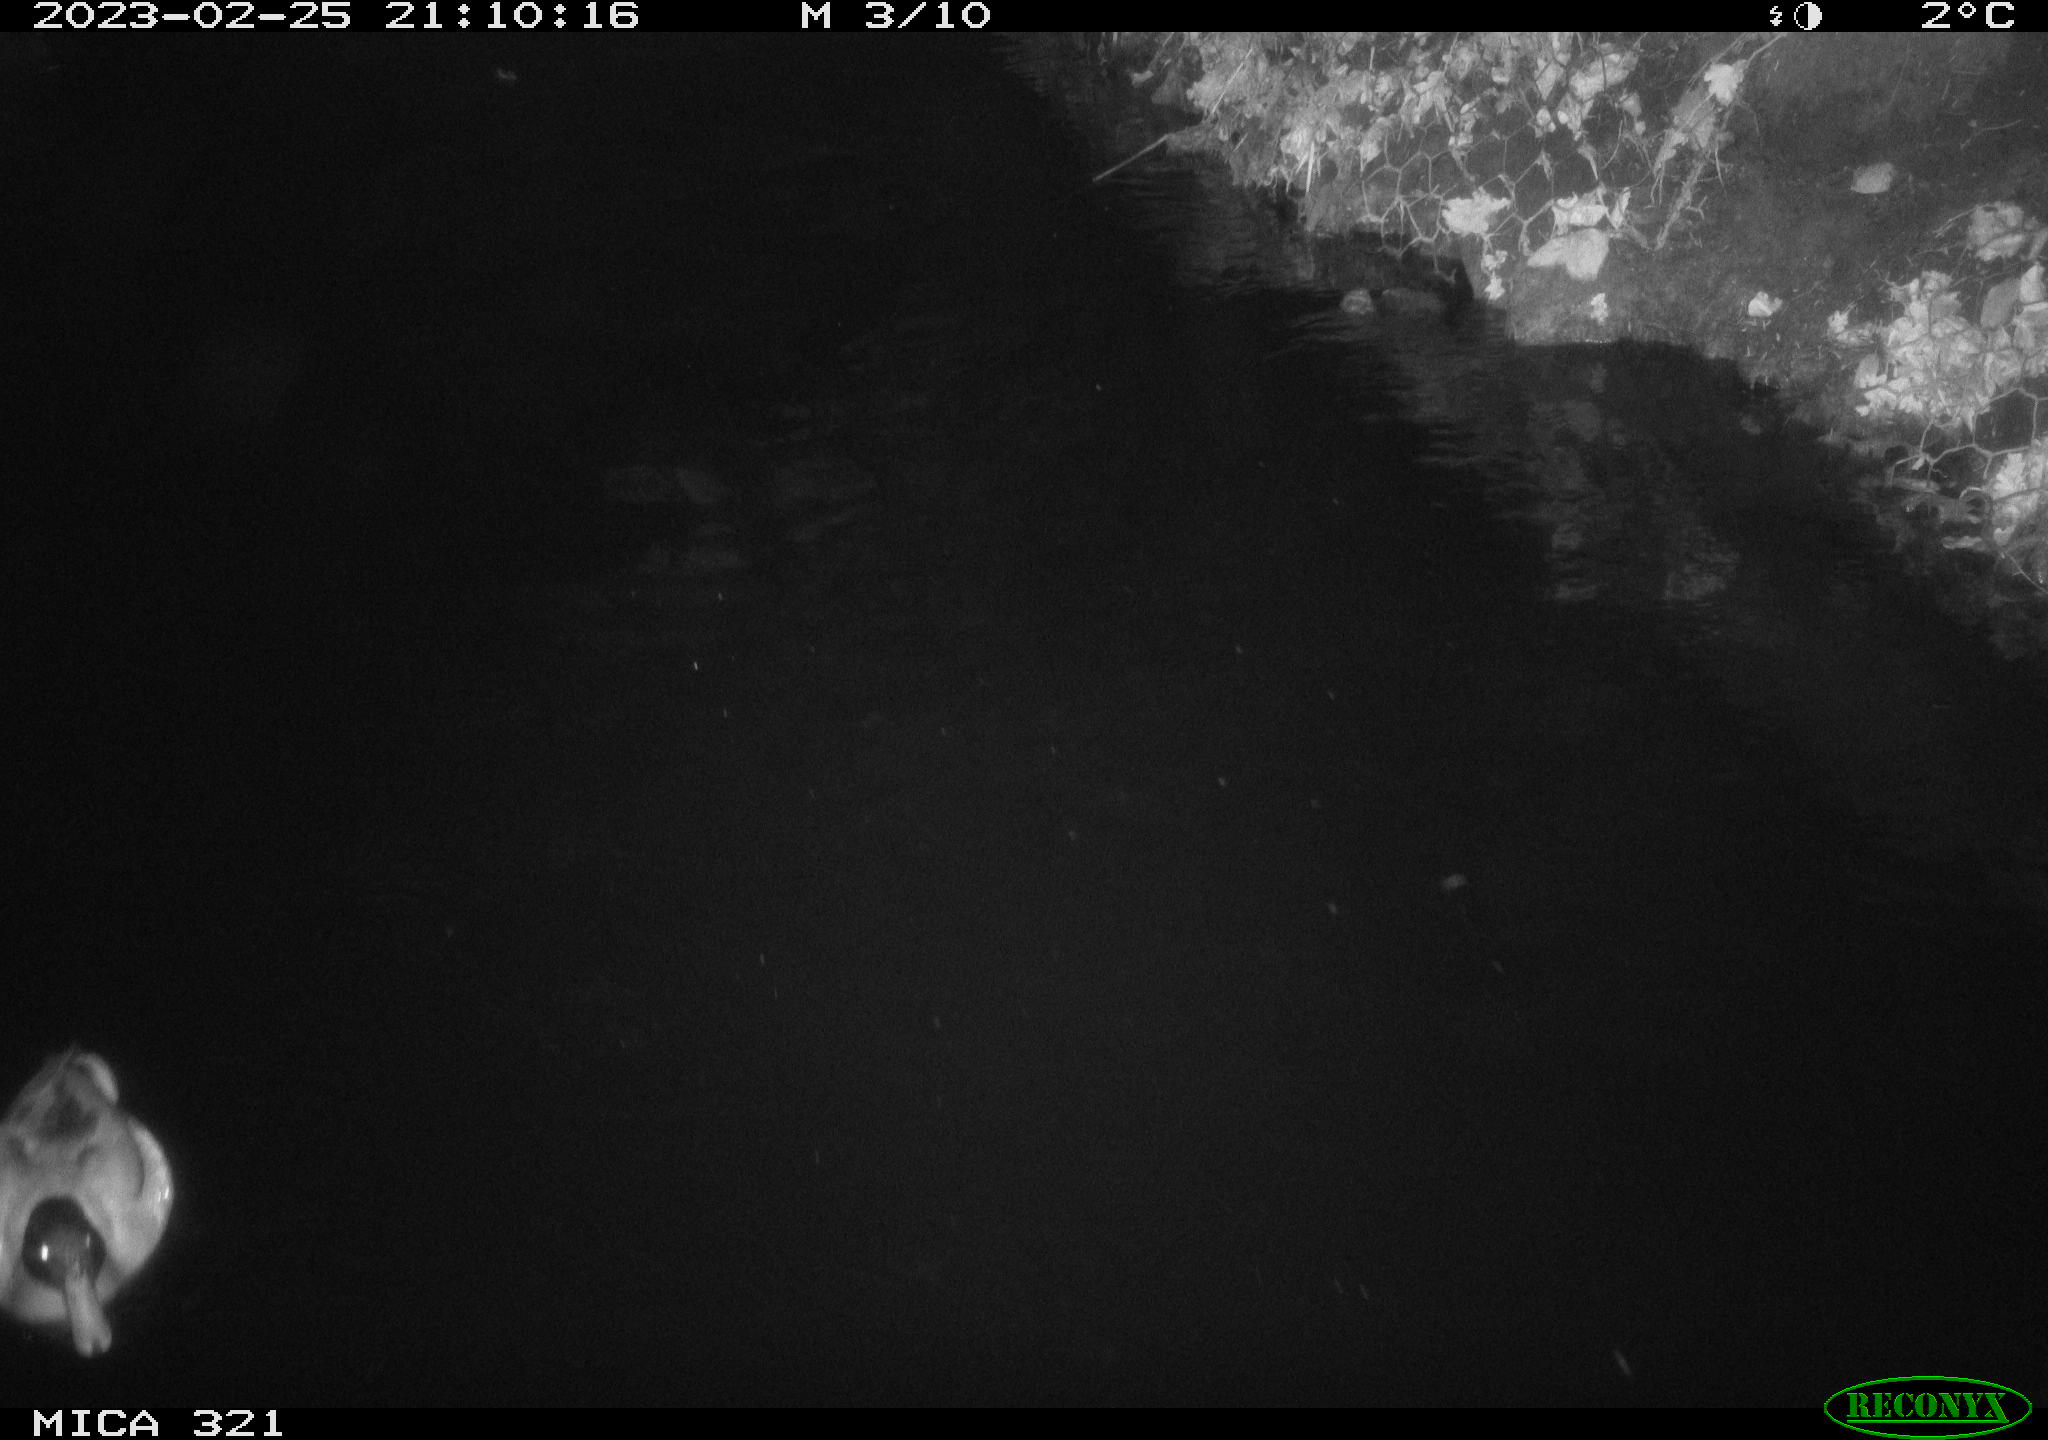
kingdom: Animalia
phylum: Chordata
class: Aves
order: Anseriformes
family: Anatidae
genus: Anas
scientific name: Anas
